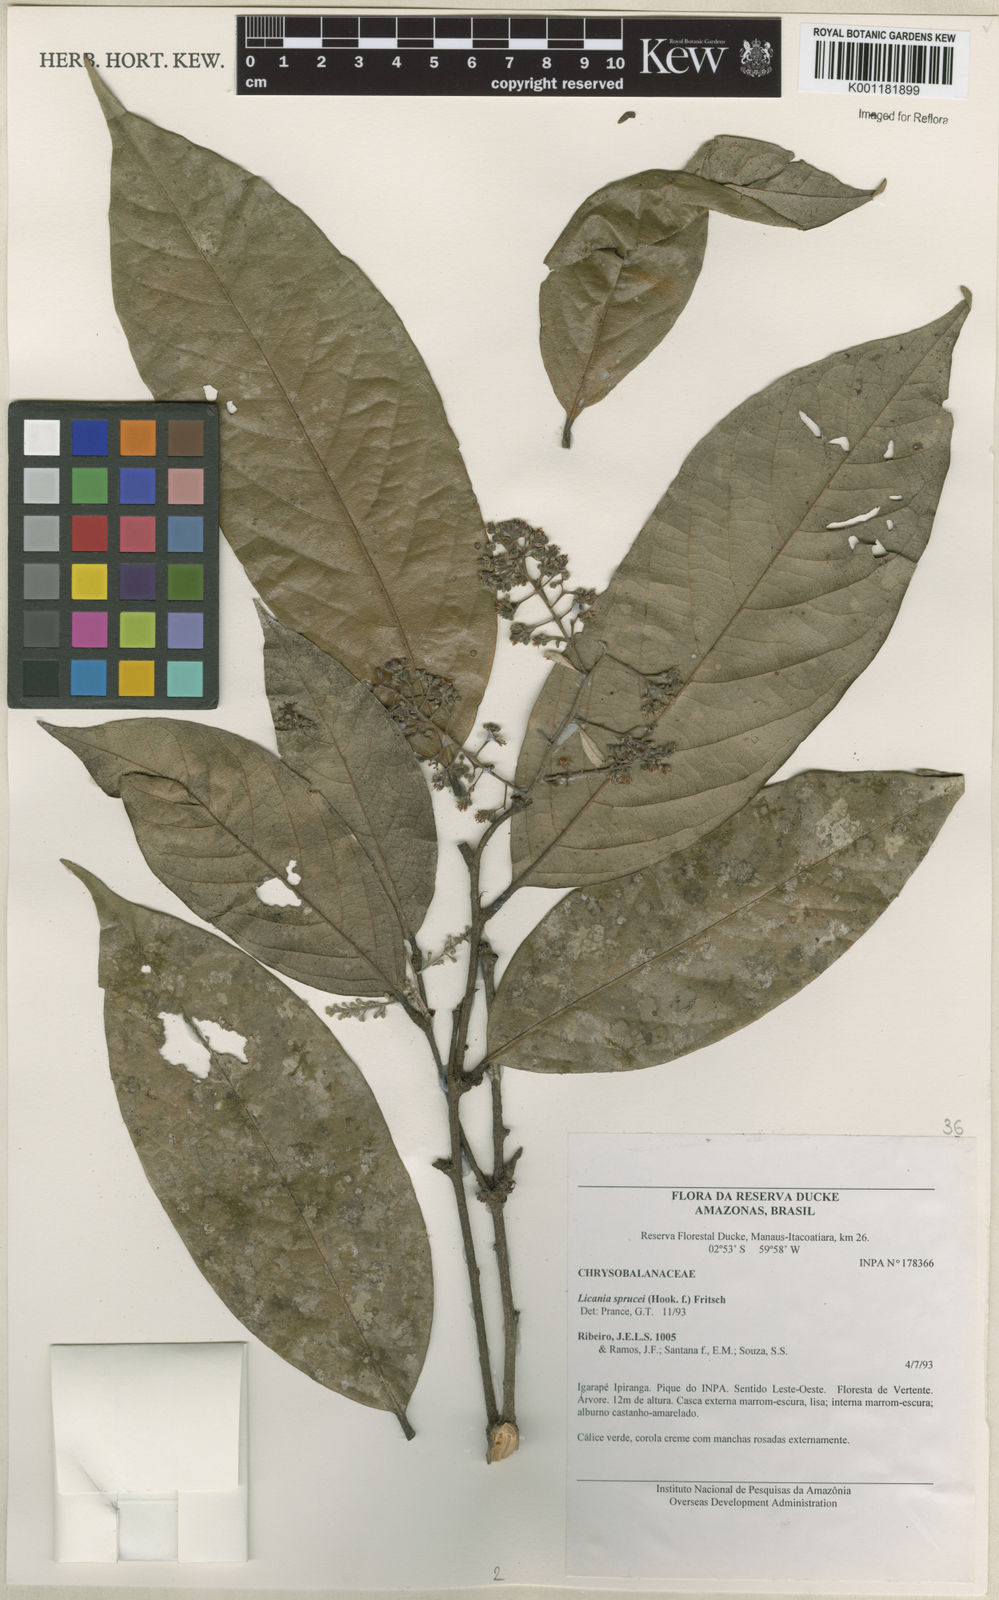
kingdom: Plantae
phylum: Tracheophyta
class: Magnoliopsida
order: Malpighiales
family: Chrysobalanaceae
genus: Leptobalanus
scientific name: Leptobalanus sprucei
